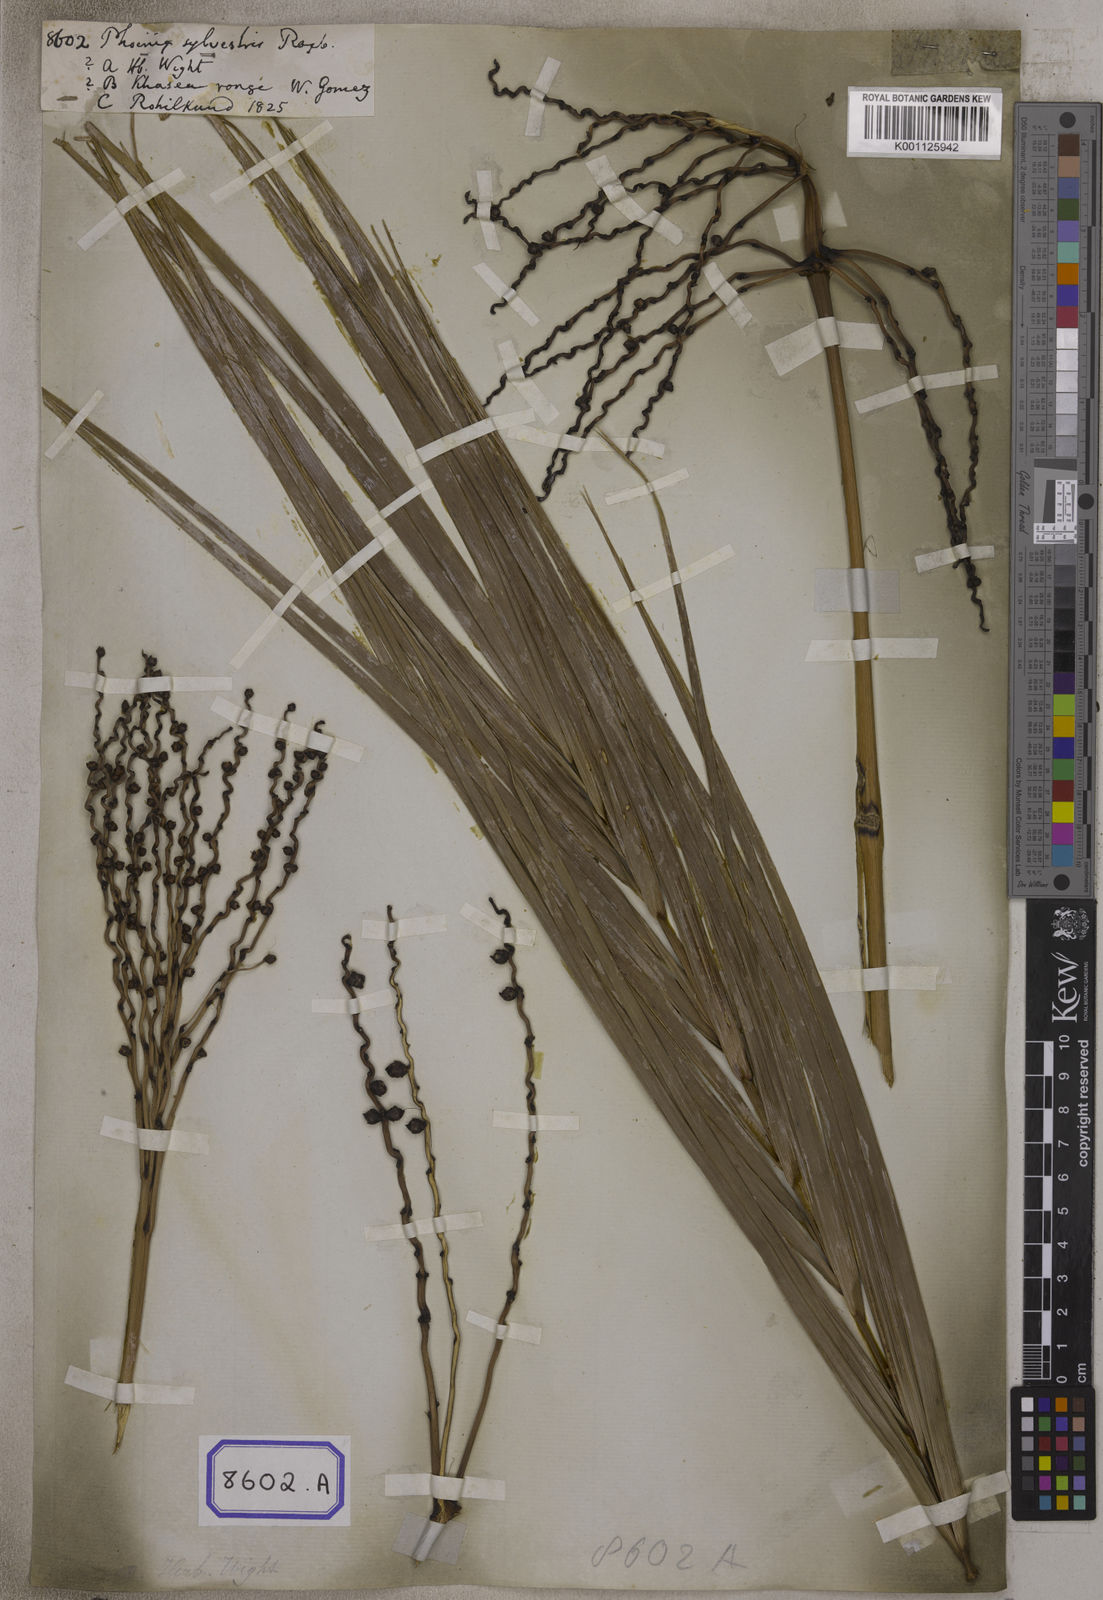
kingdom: Plantae
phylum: Tracheophyta
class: Liliopsida
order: Arecales
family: Arecaceae
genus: Phoenix
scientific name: Phoenix sylvestris
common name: Wild date palm
